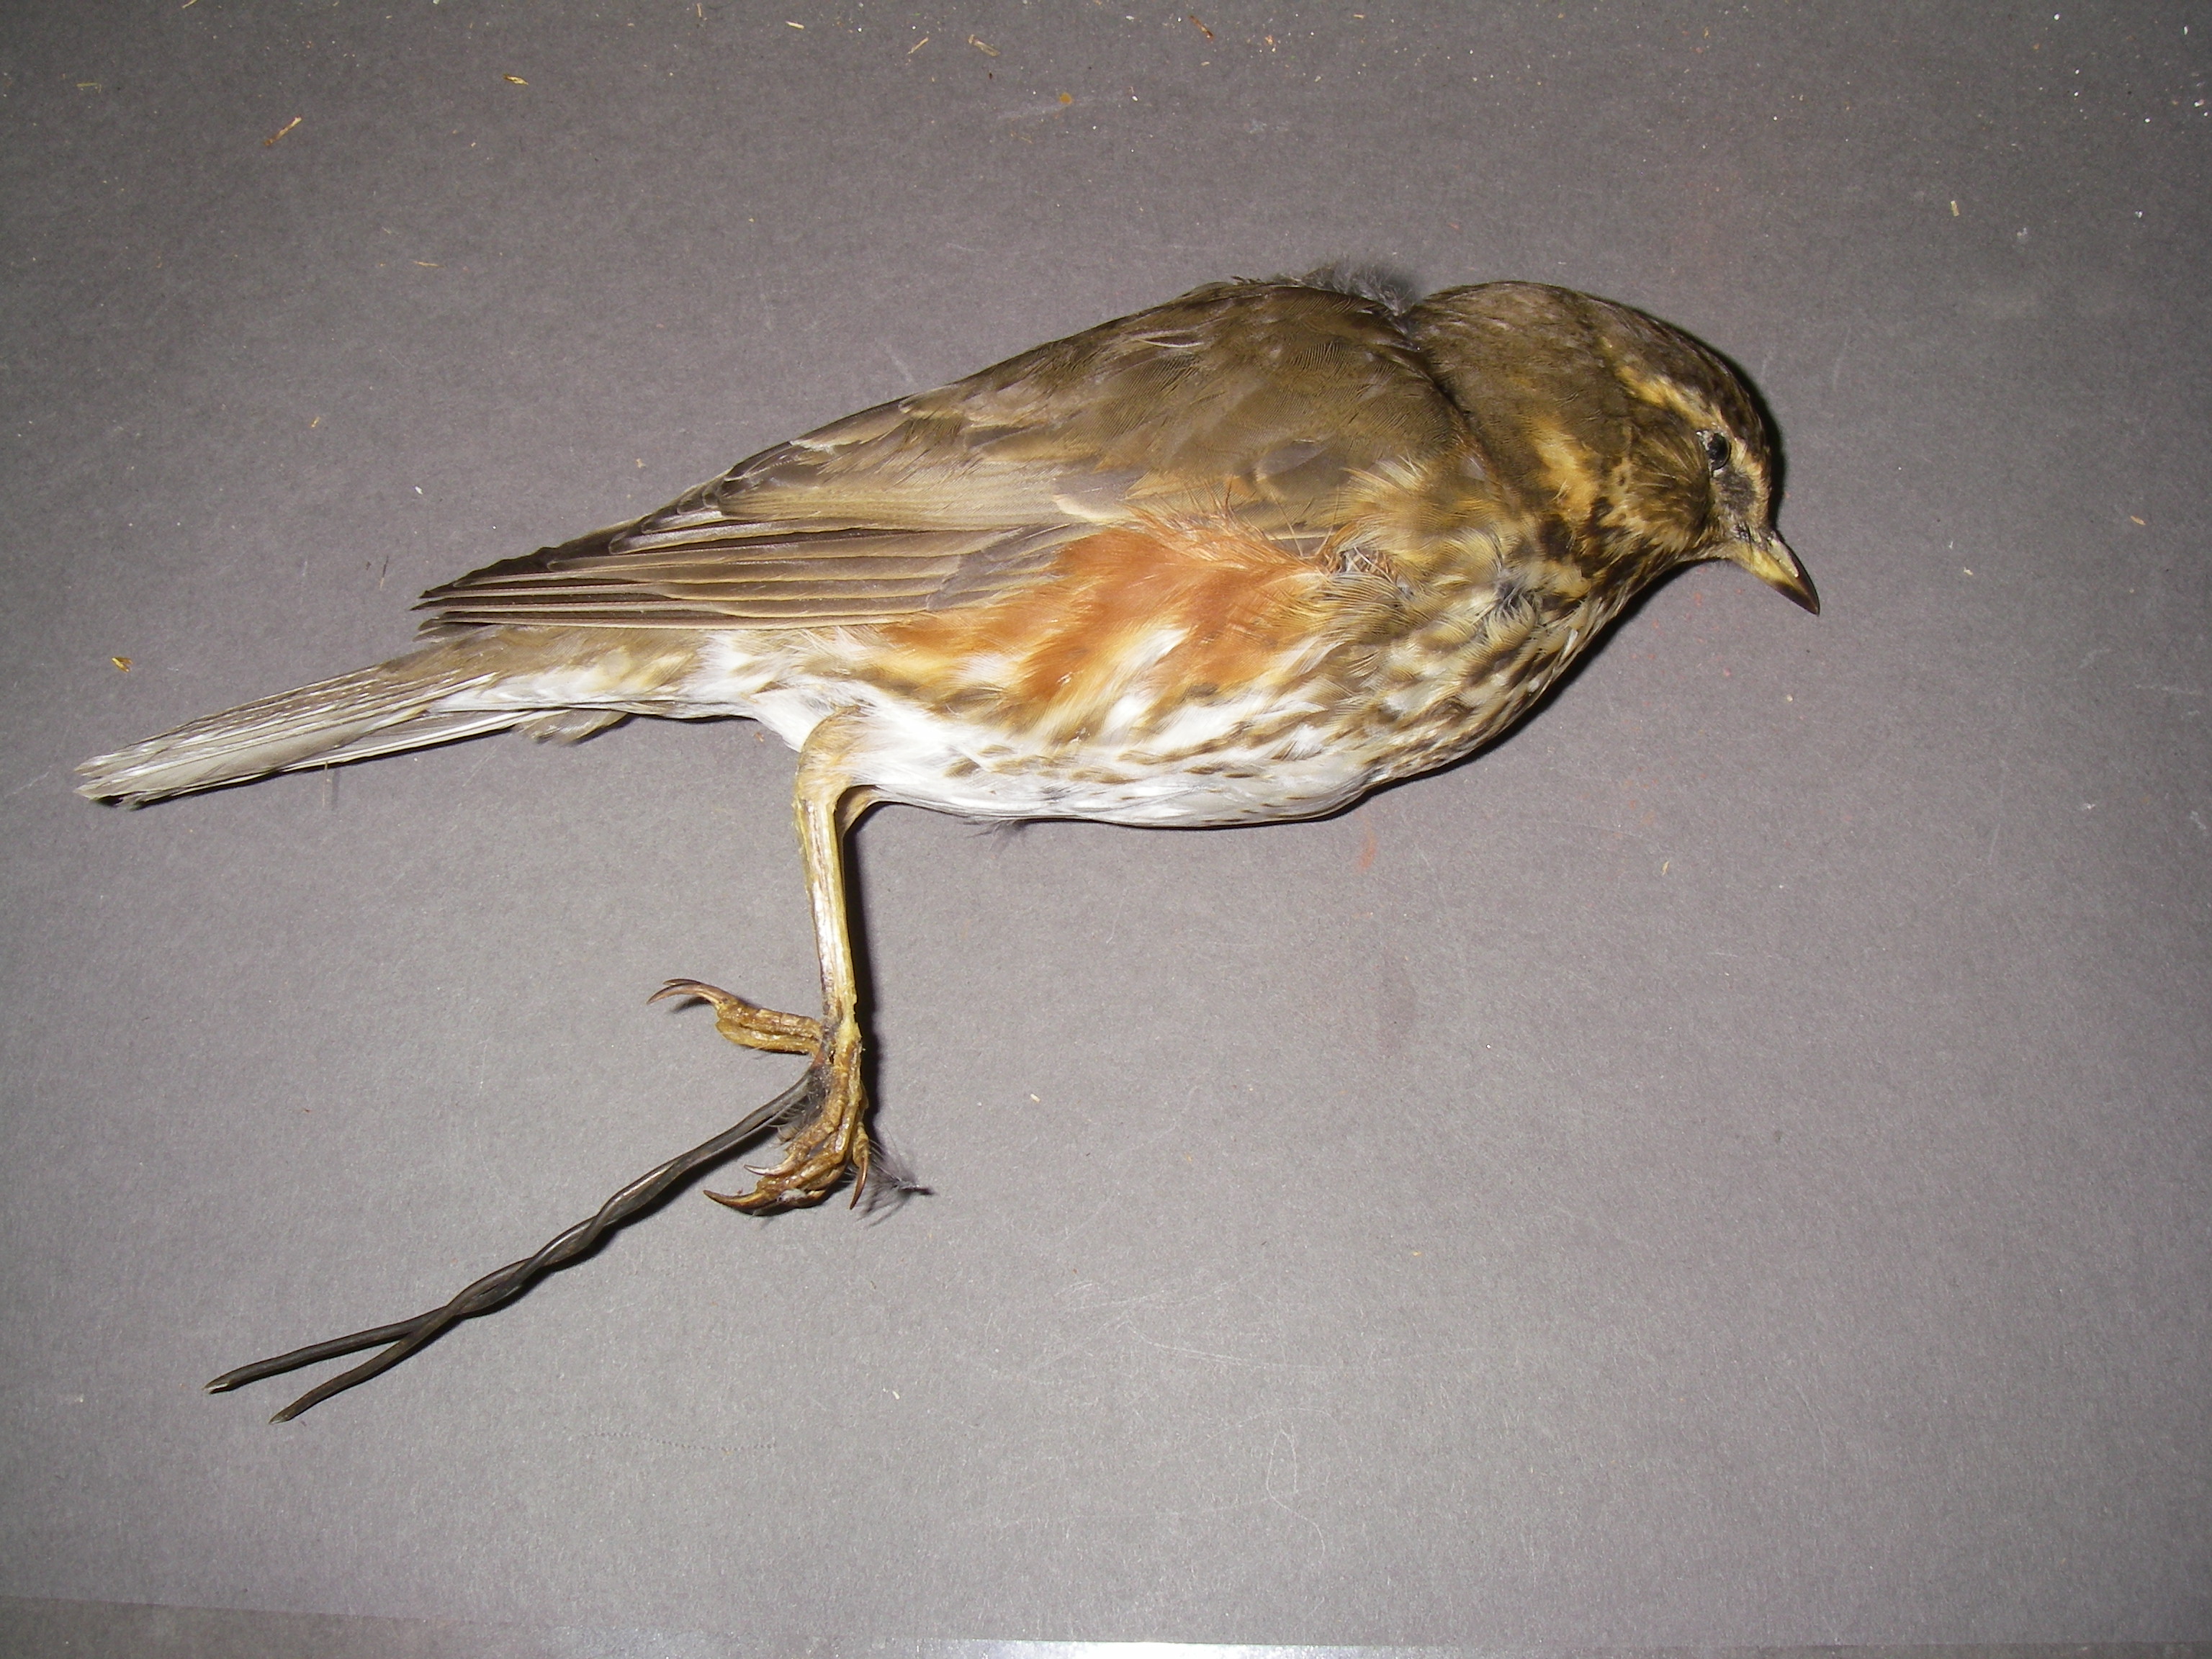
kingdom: Animalia
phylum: Chordata
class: Aves
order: Passeriformes
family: Turdidae
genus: Turdus
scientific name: Turdus iliacus
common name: Redwing
